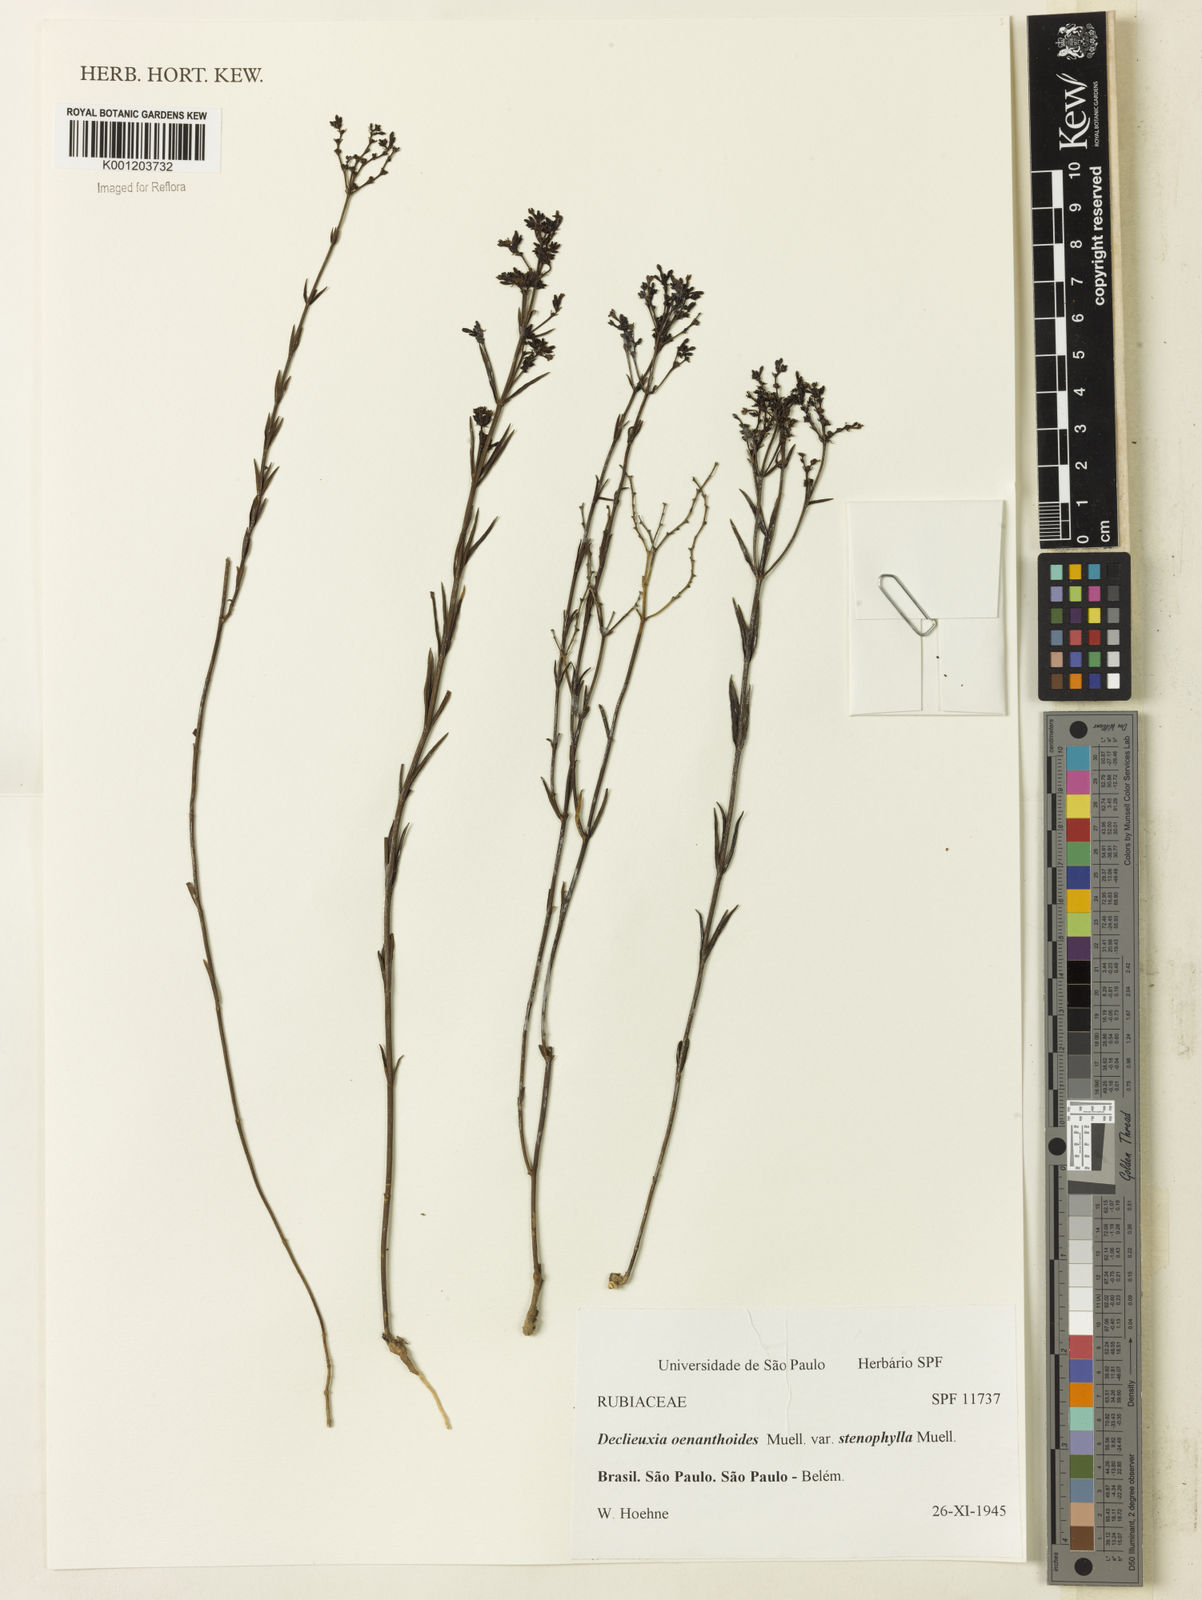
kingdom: Plantae
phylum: Tracheophyta
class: Magnoliopsida
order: Gentianales
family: Rubiaceae
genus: Declieuxia
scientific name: Declieuxia
